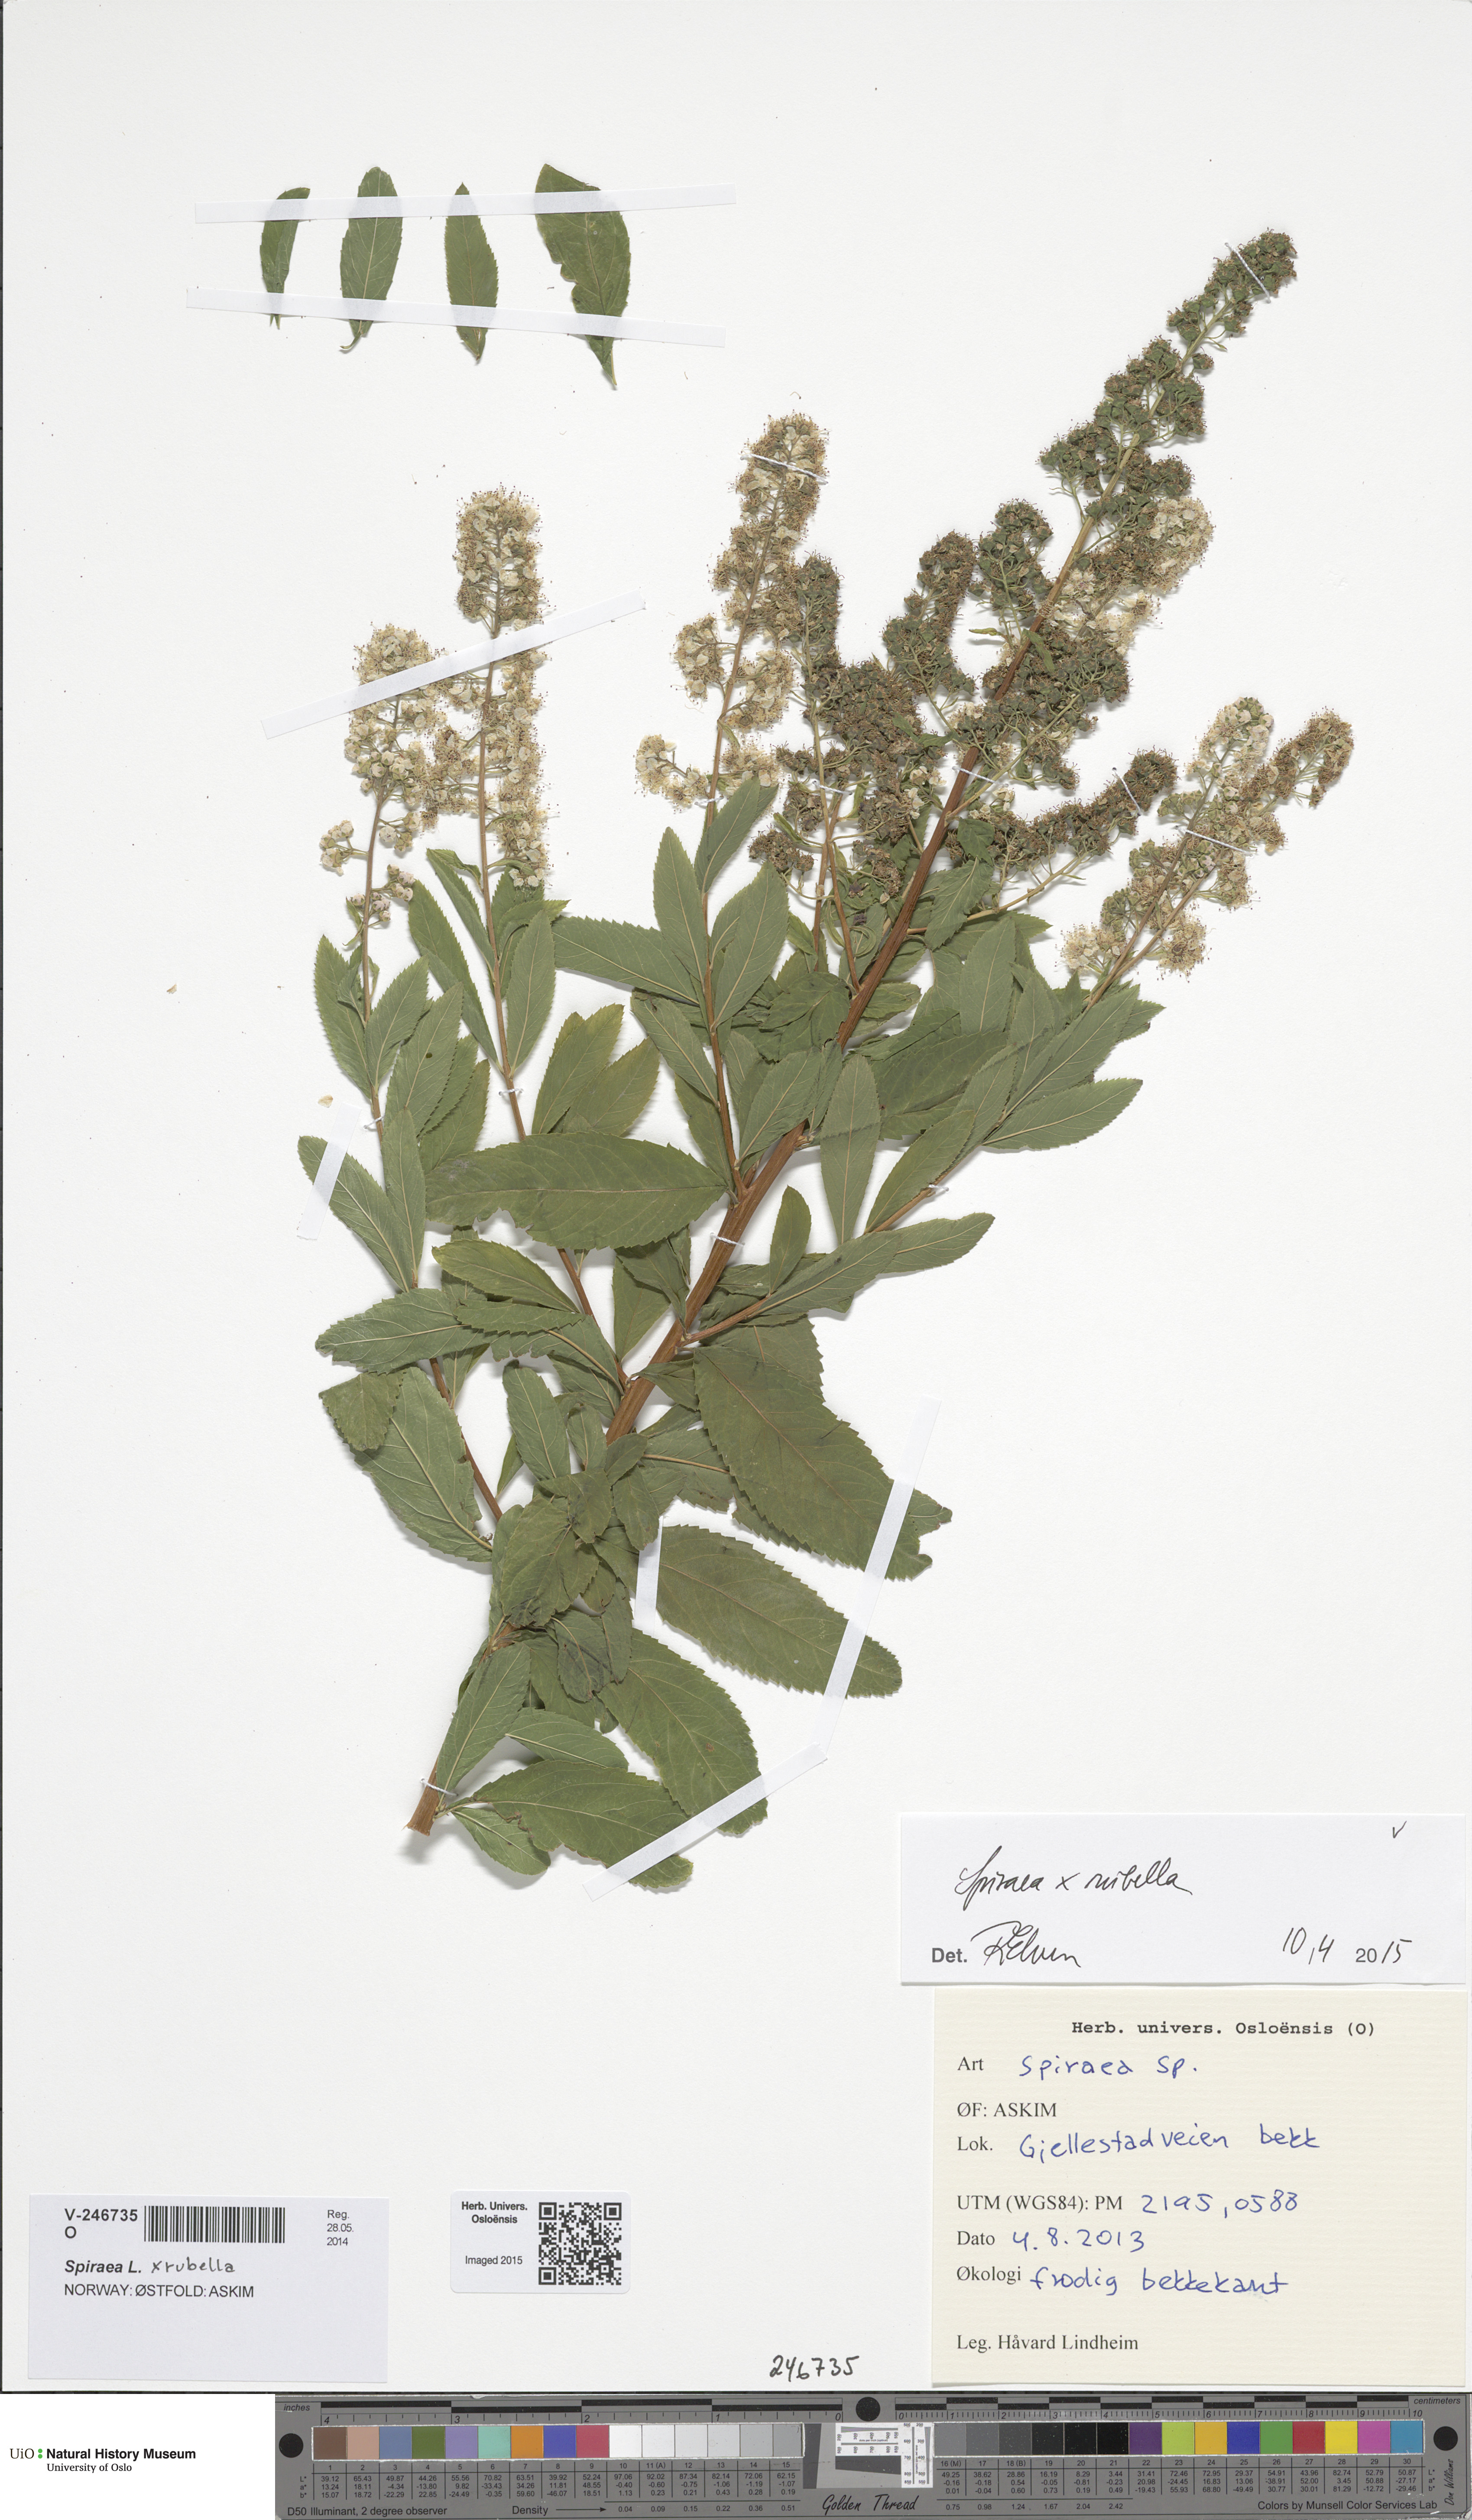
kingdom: Plantae
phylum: Tracheophyta
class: Magnoliopsida
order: Rosales
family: Rosaceae
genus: Spiraea
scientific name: Spiraea rosalba
